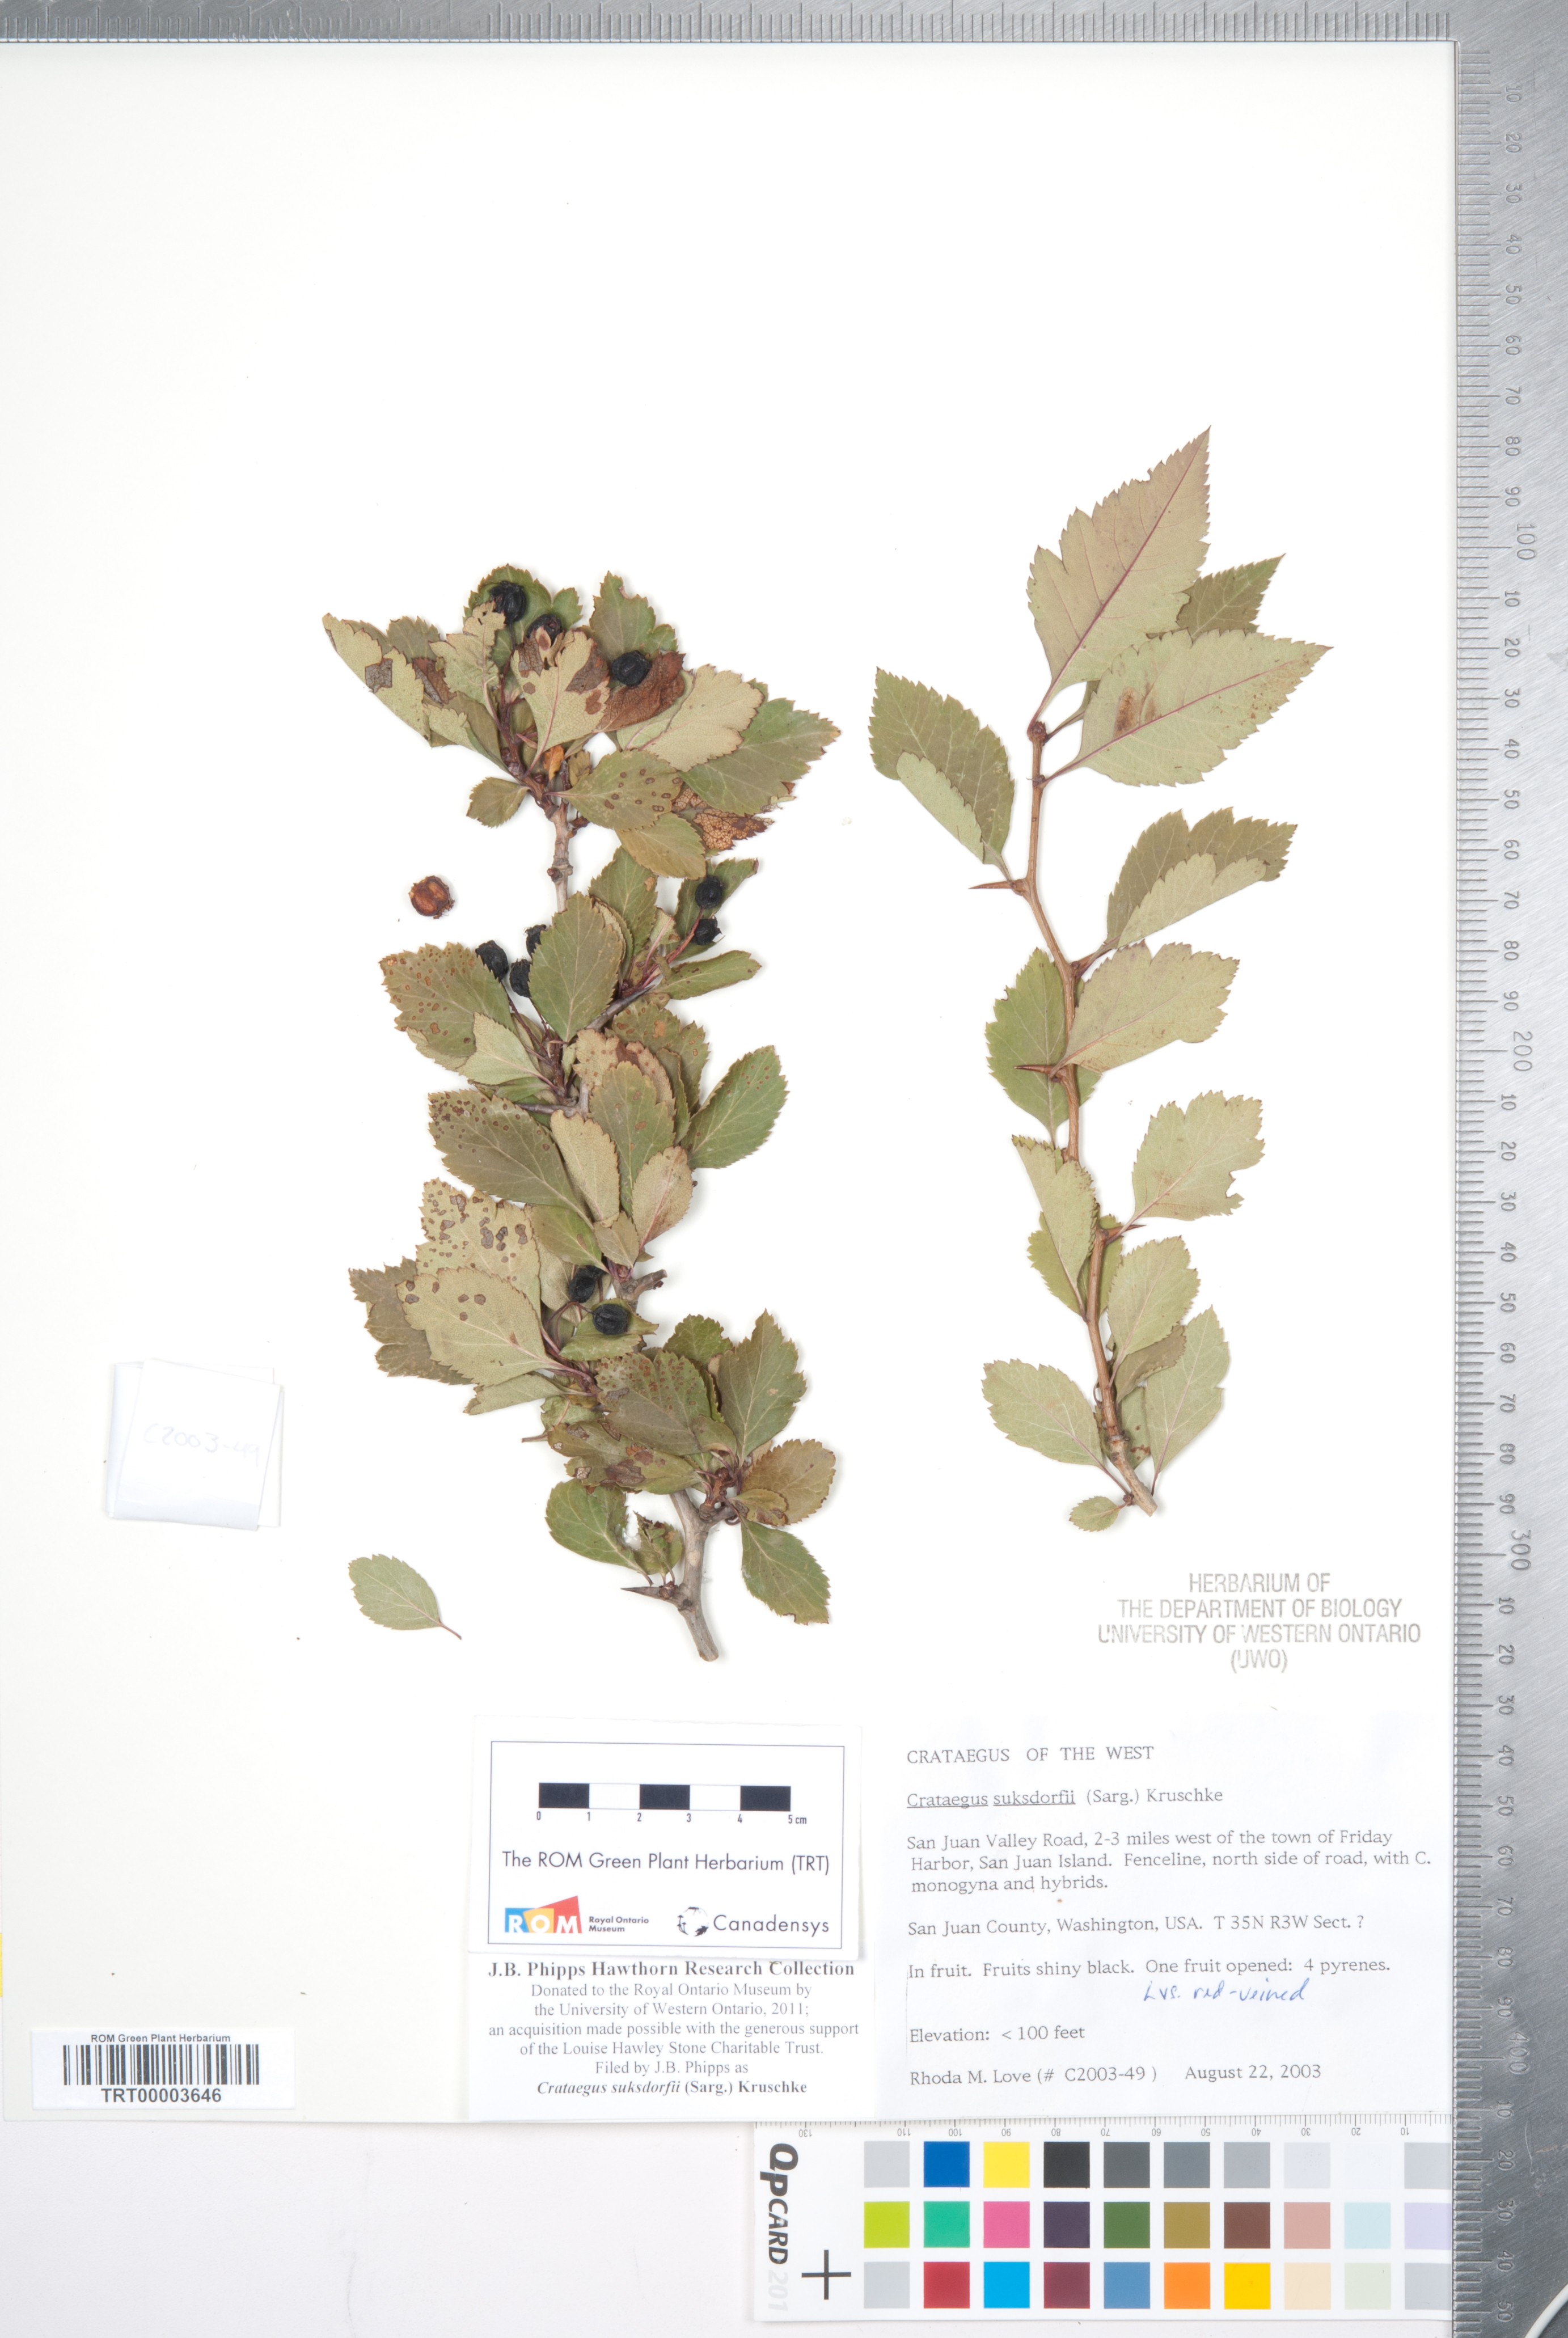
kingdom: Plantae
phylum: Tracheophyta
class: Magnoliopsida
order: Rosales
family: Rosaceae
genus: Crataegus
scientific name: Crataegus gaylussacia
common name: Huckleberry hawthorn
